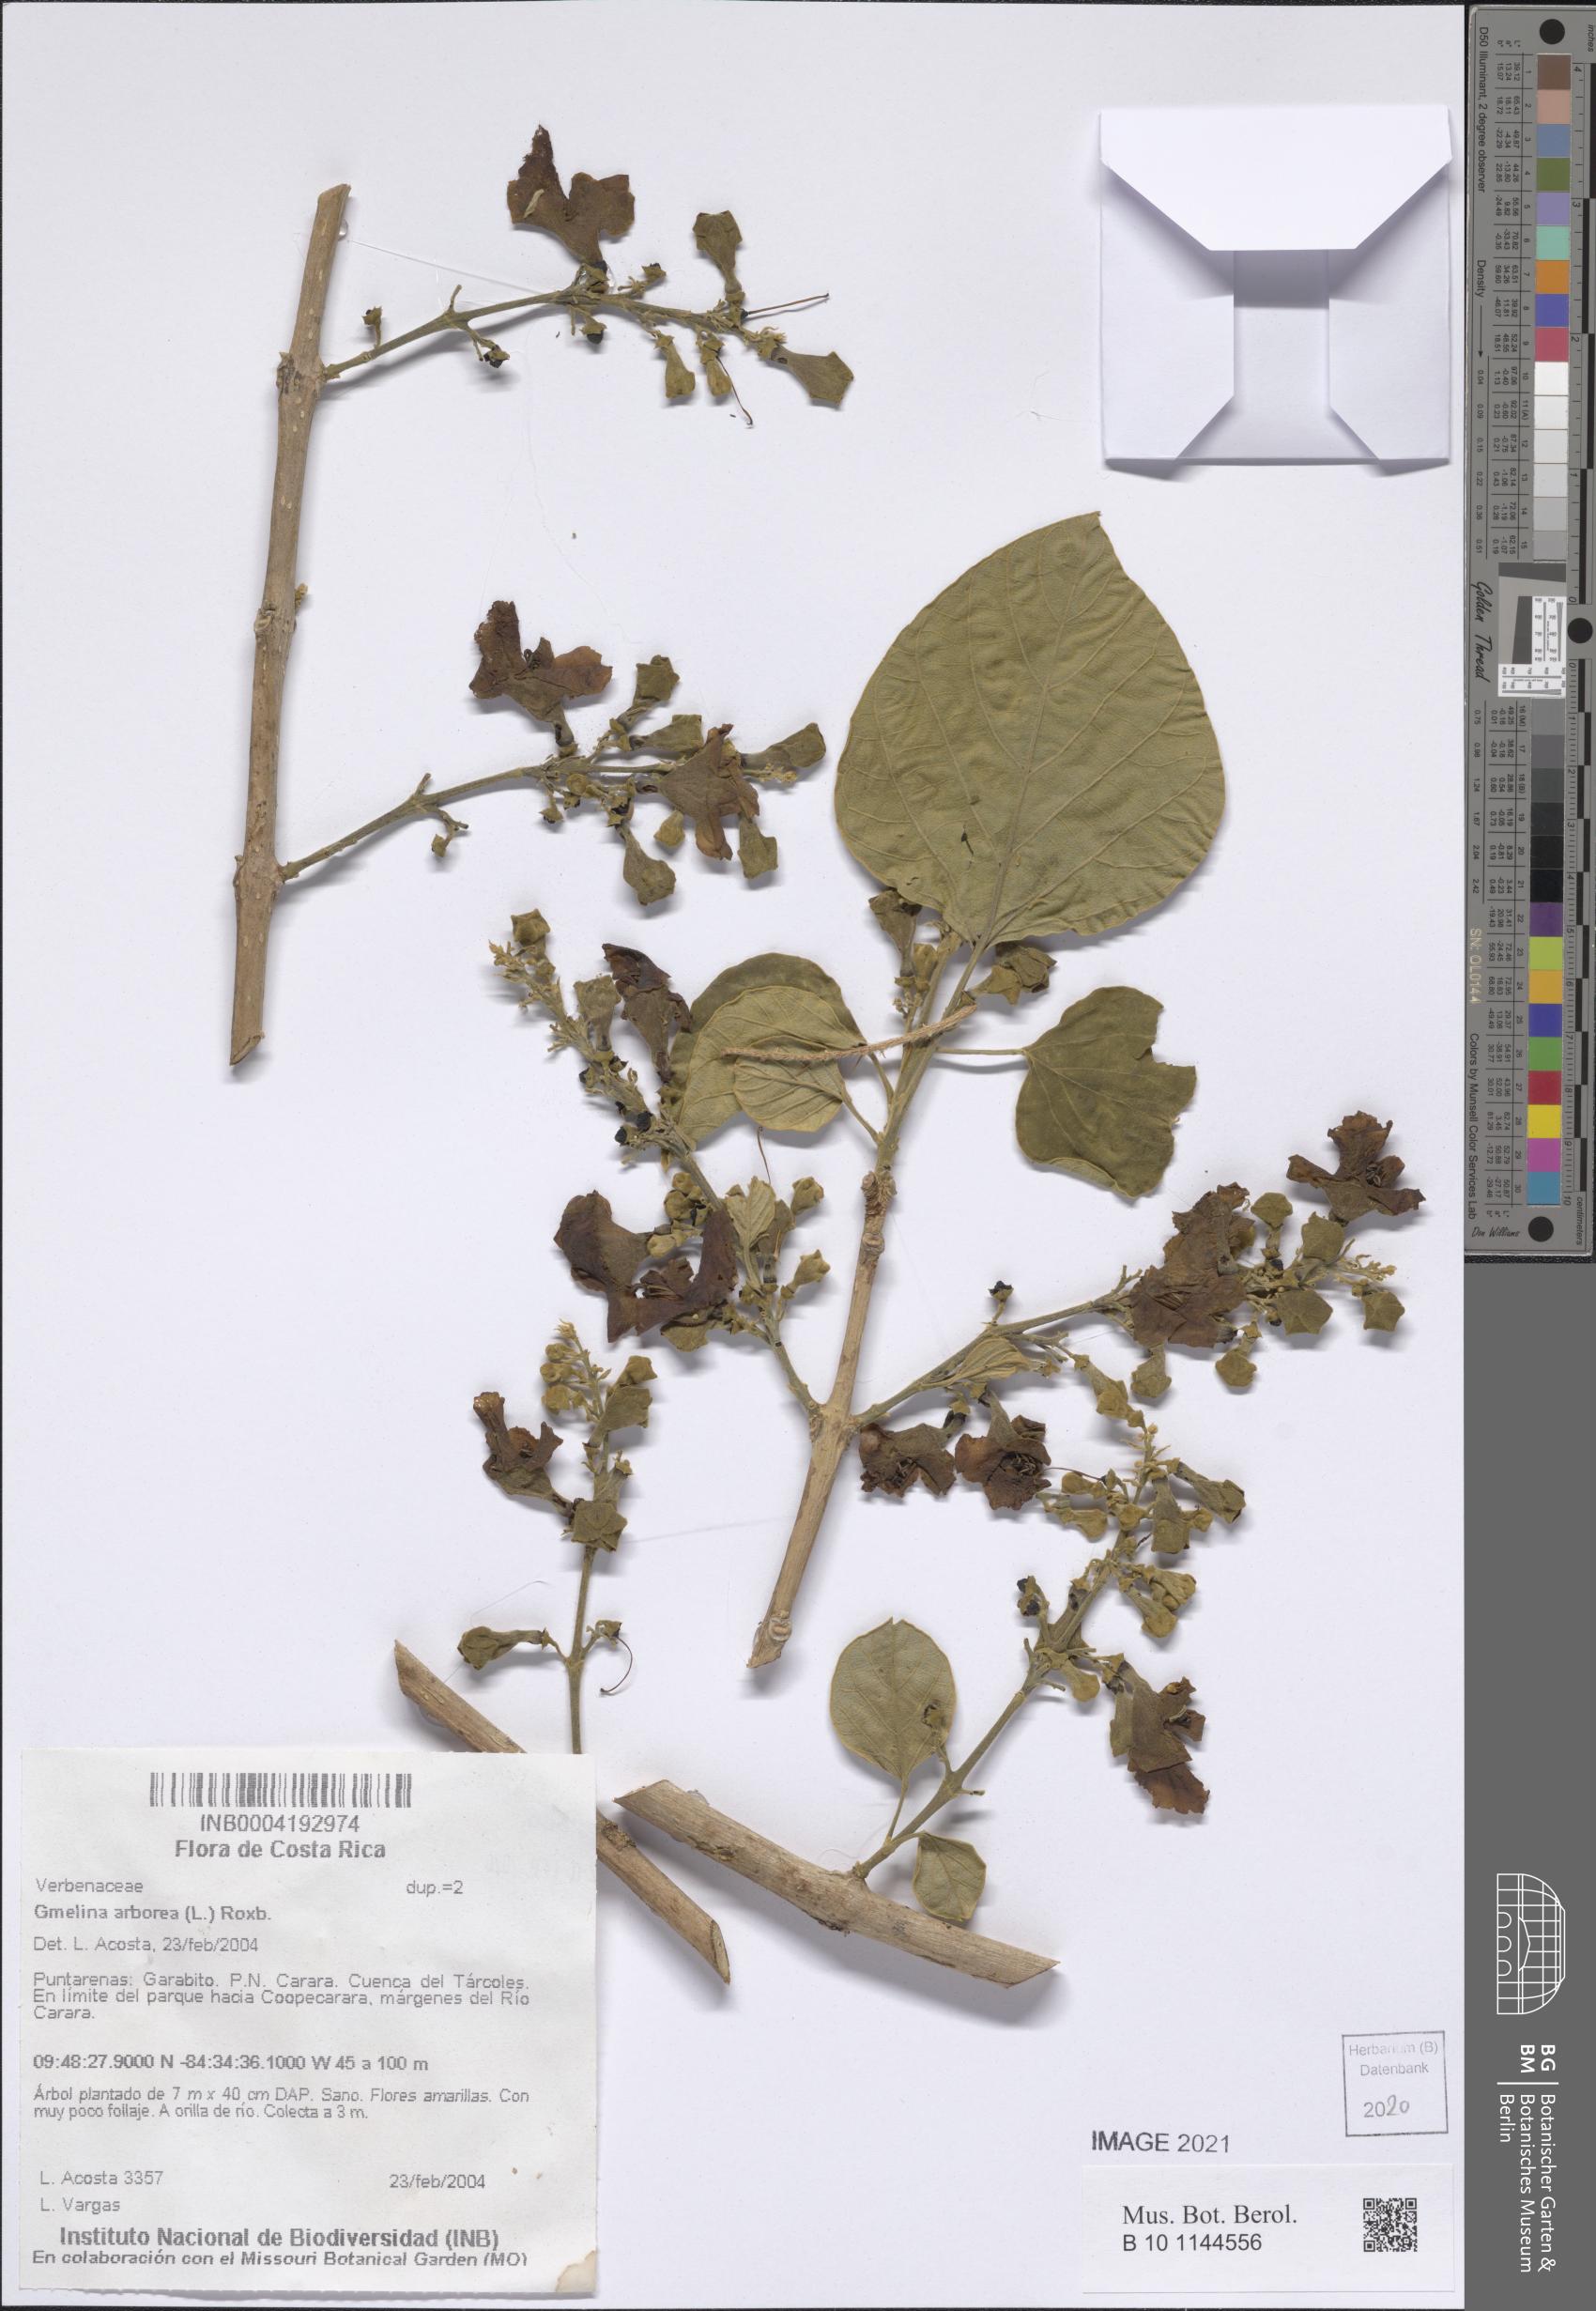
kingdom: Plantae
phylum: Tracheophyta
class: Magnoliopsida
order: Lamiales
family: Lamiaceae
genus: Gmelina
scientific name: Gmelina arborea
